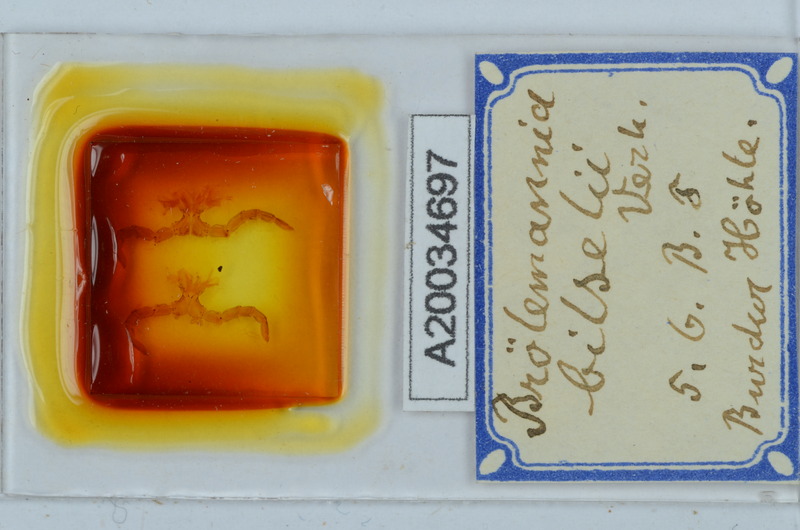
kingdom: Animalia
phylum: Arthropoda
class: Diplopoda
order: Callipodida
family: Schizopetalidae
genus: Eurygyrus
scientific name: Eurygyrus bilselii
